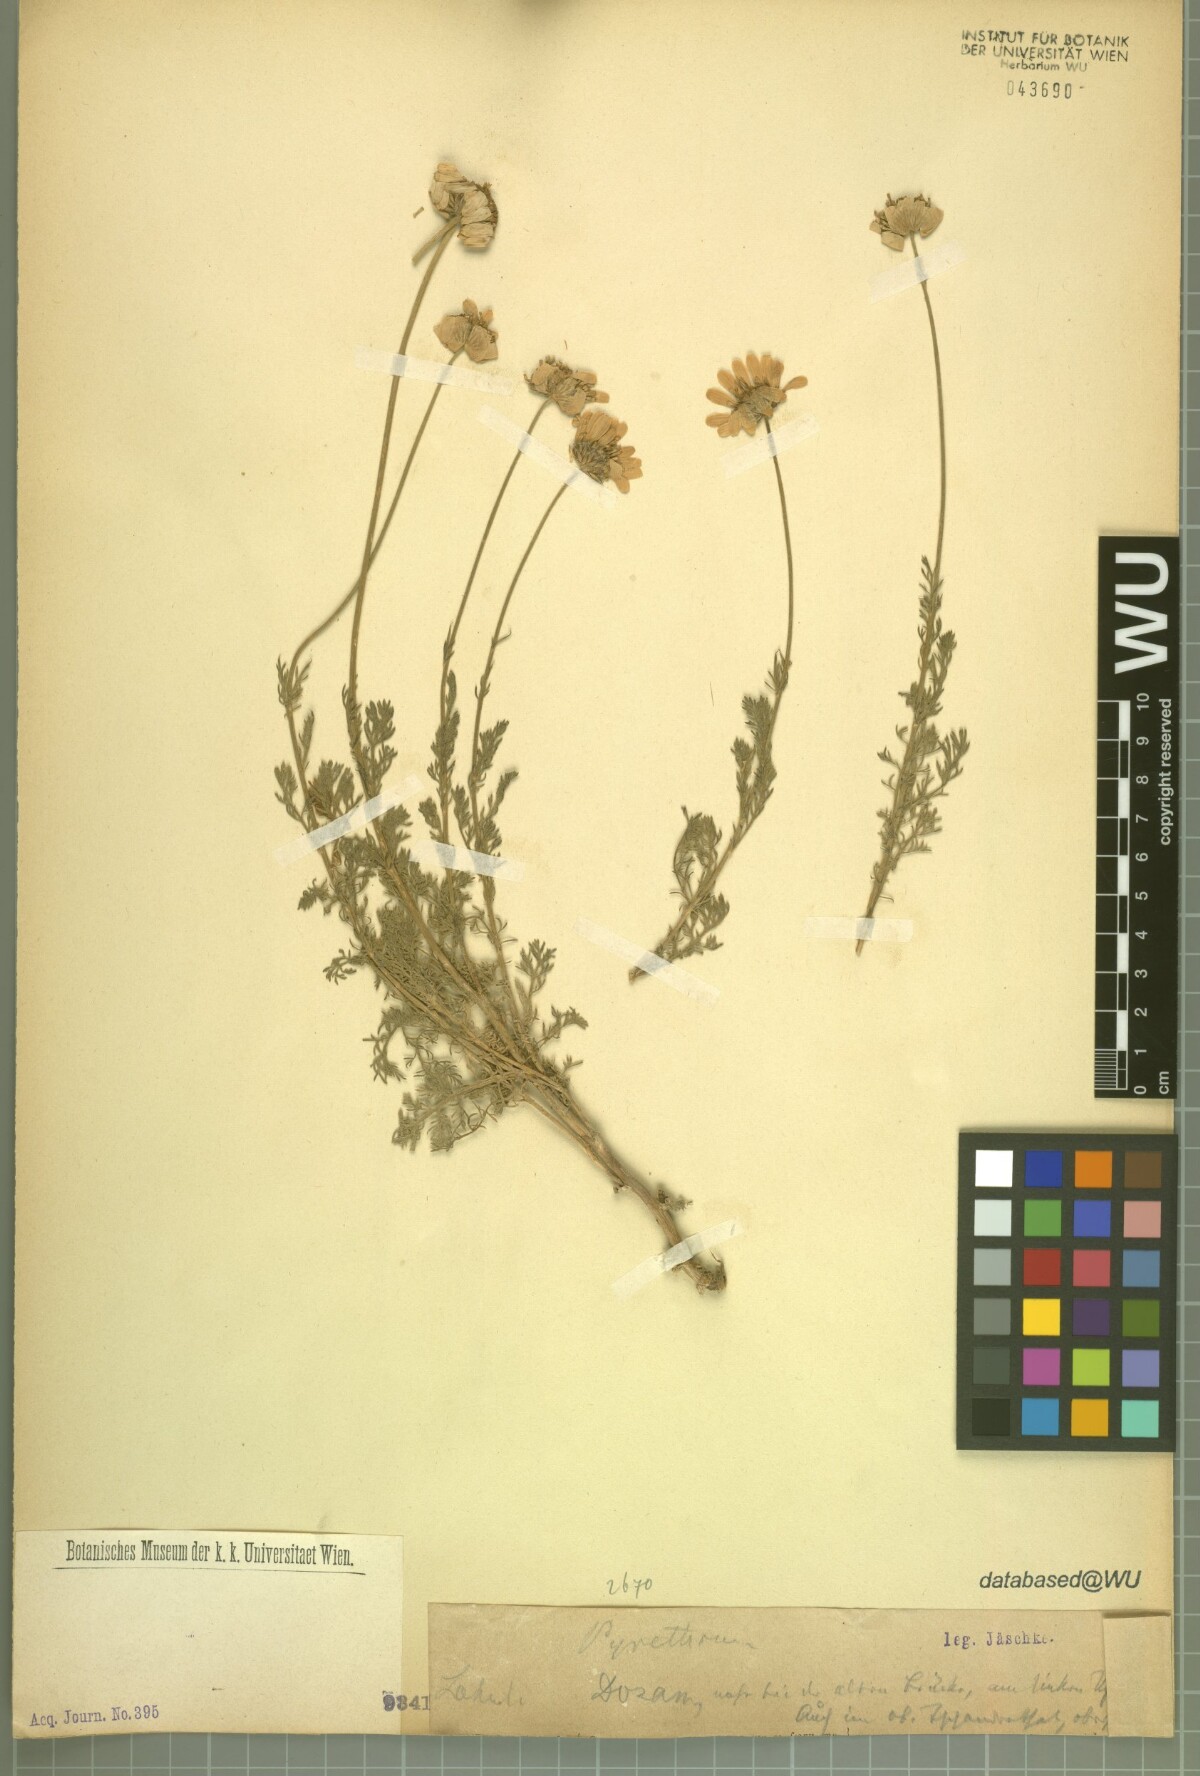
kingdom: Plantae
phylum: Tracheophyta
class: Magnoliopsida
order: Asterales
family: Asteraceae
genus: Pyrethrum
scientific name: Pyrethrum
